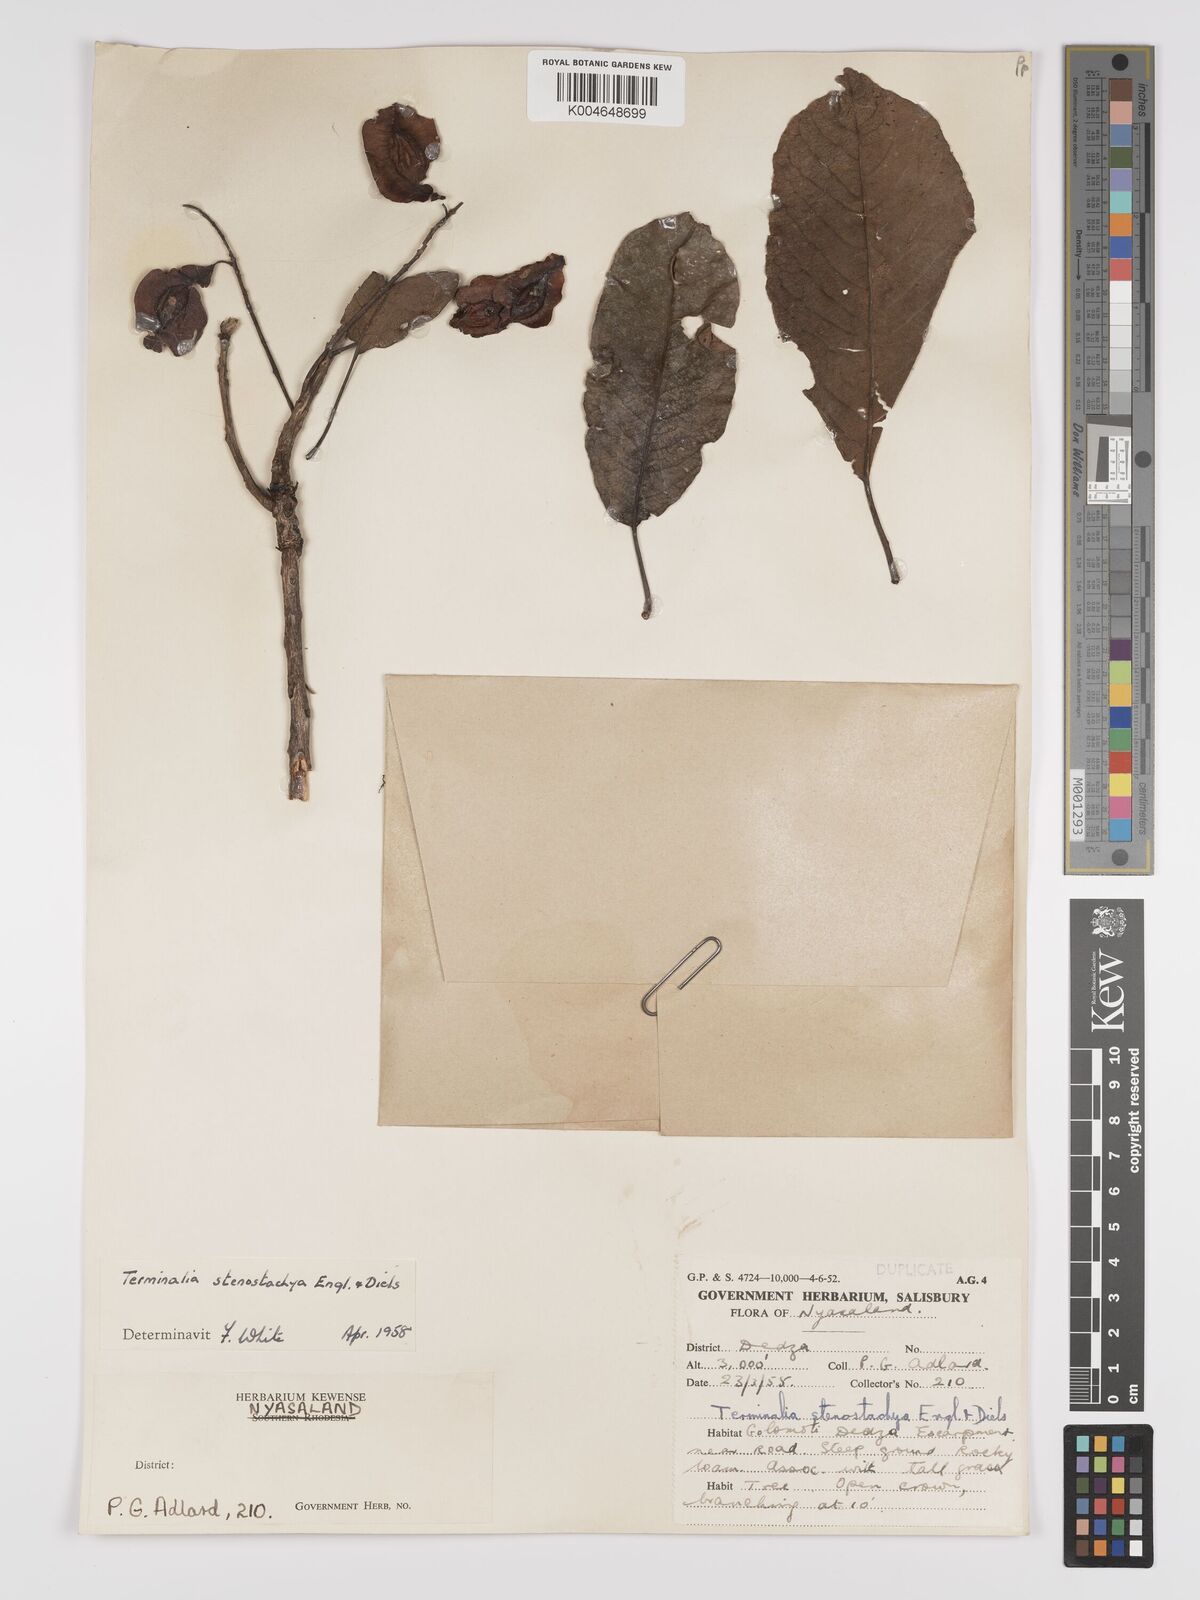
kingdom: Plantae
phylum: Tracheophyta
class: Magnoliopsida
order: Myrtales
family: Combretaceae
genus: Terminalia
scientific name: Terminalia stenostachya
